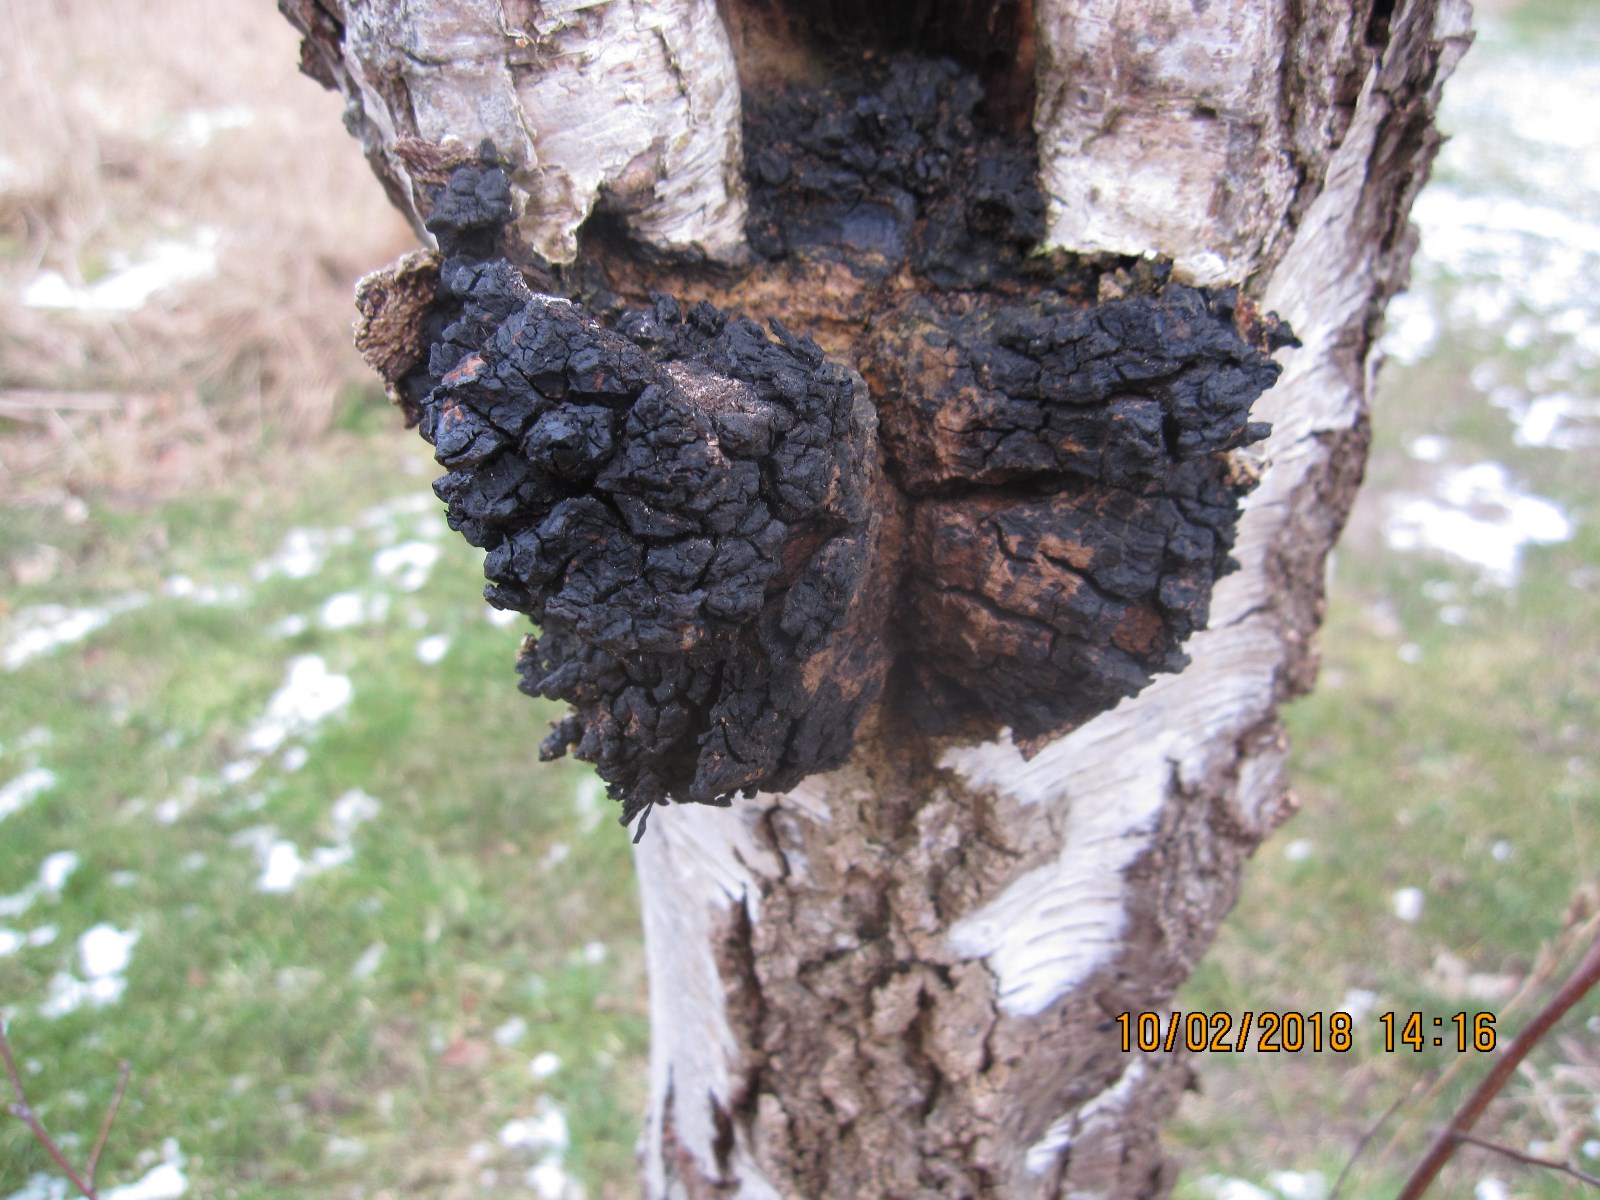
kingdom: Fungi
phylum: Basidiomycota
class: Agaricomycetes
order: Hymenochaetales
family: Hymenochaetaceae
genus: Inonotus
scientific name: Inonotus obliquus
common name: birke-spejlporesvamp
